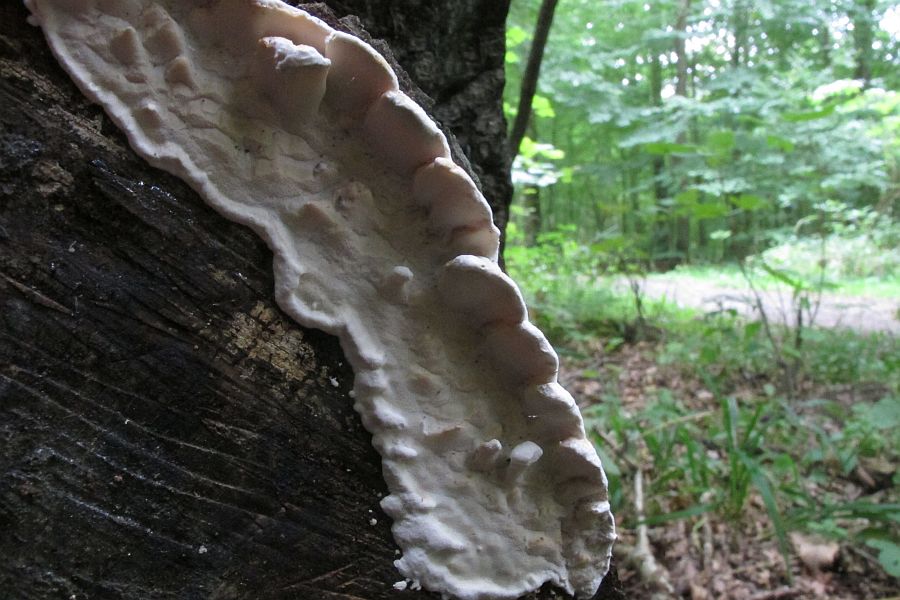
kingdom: Fungi
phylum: Basidiomycota
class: Agaricomycetes
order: Polyporales
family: Incrustoporiaceae
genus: Skeletocutis
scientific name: Skeletocutis nemoralis
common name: stor krystalporesvamp
